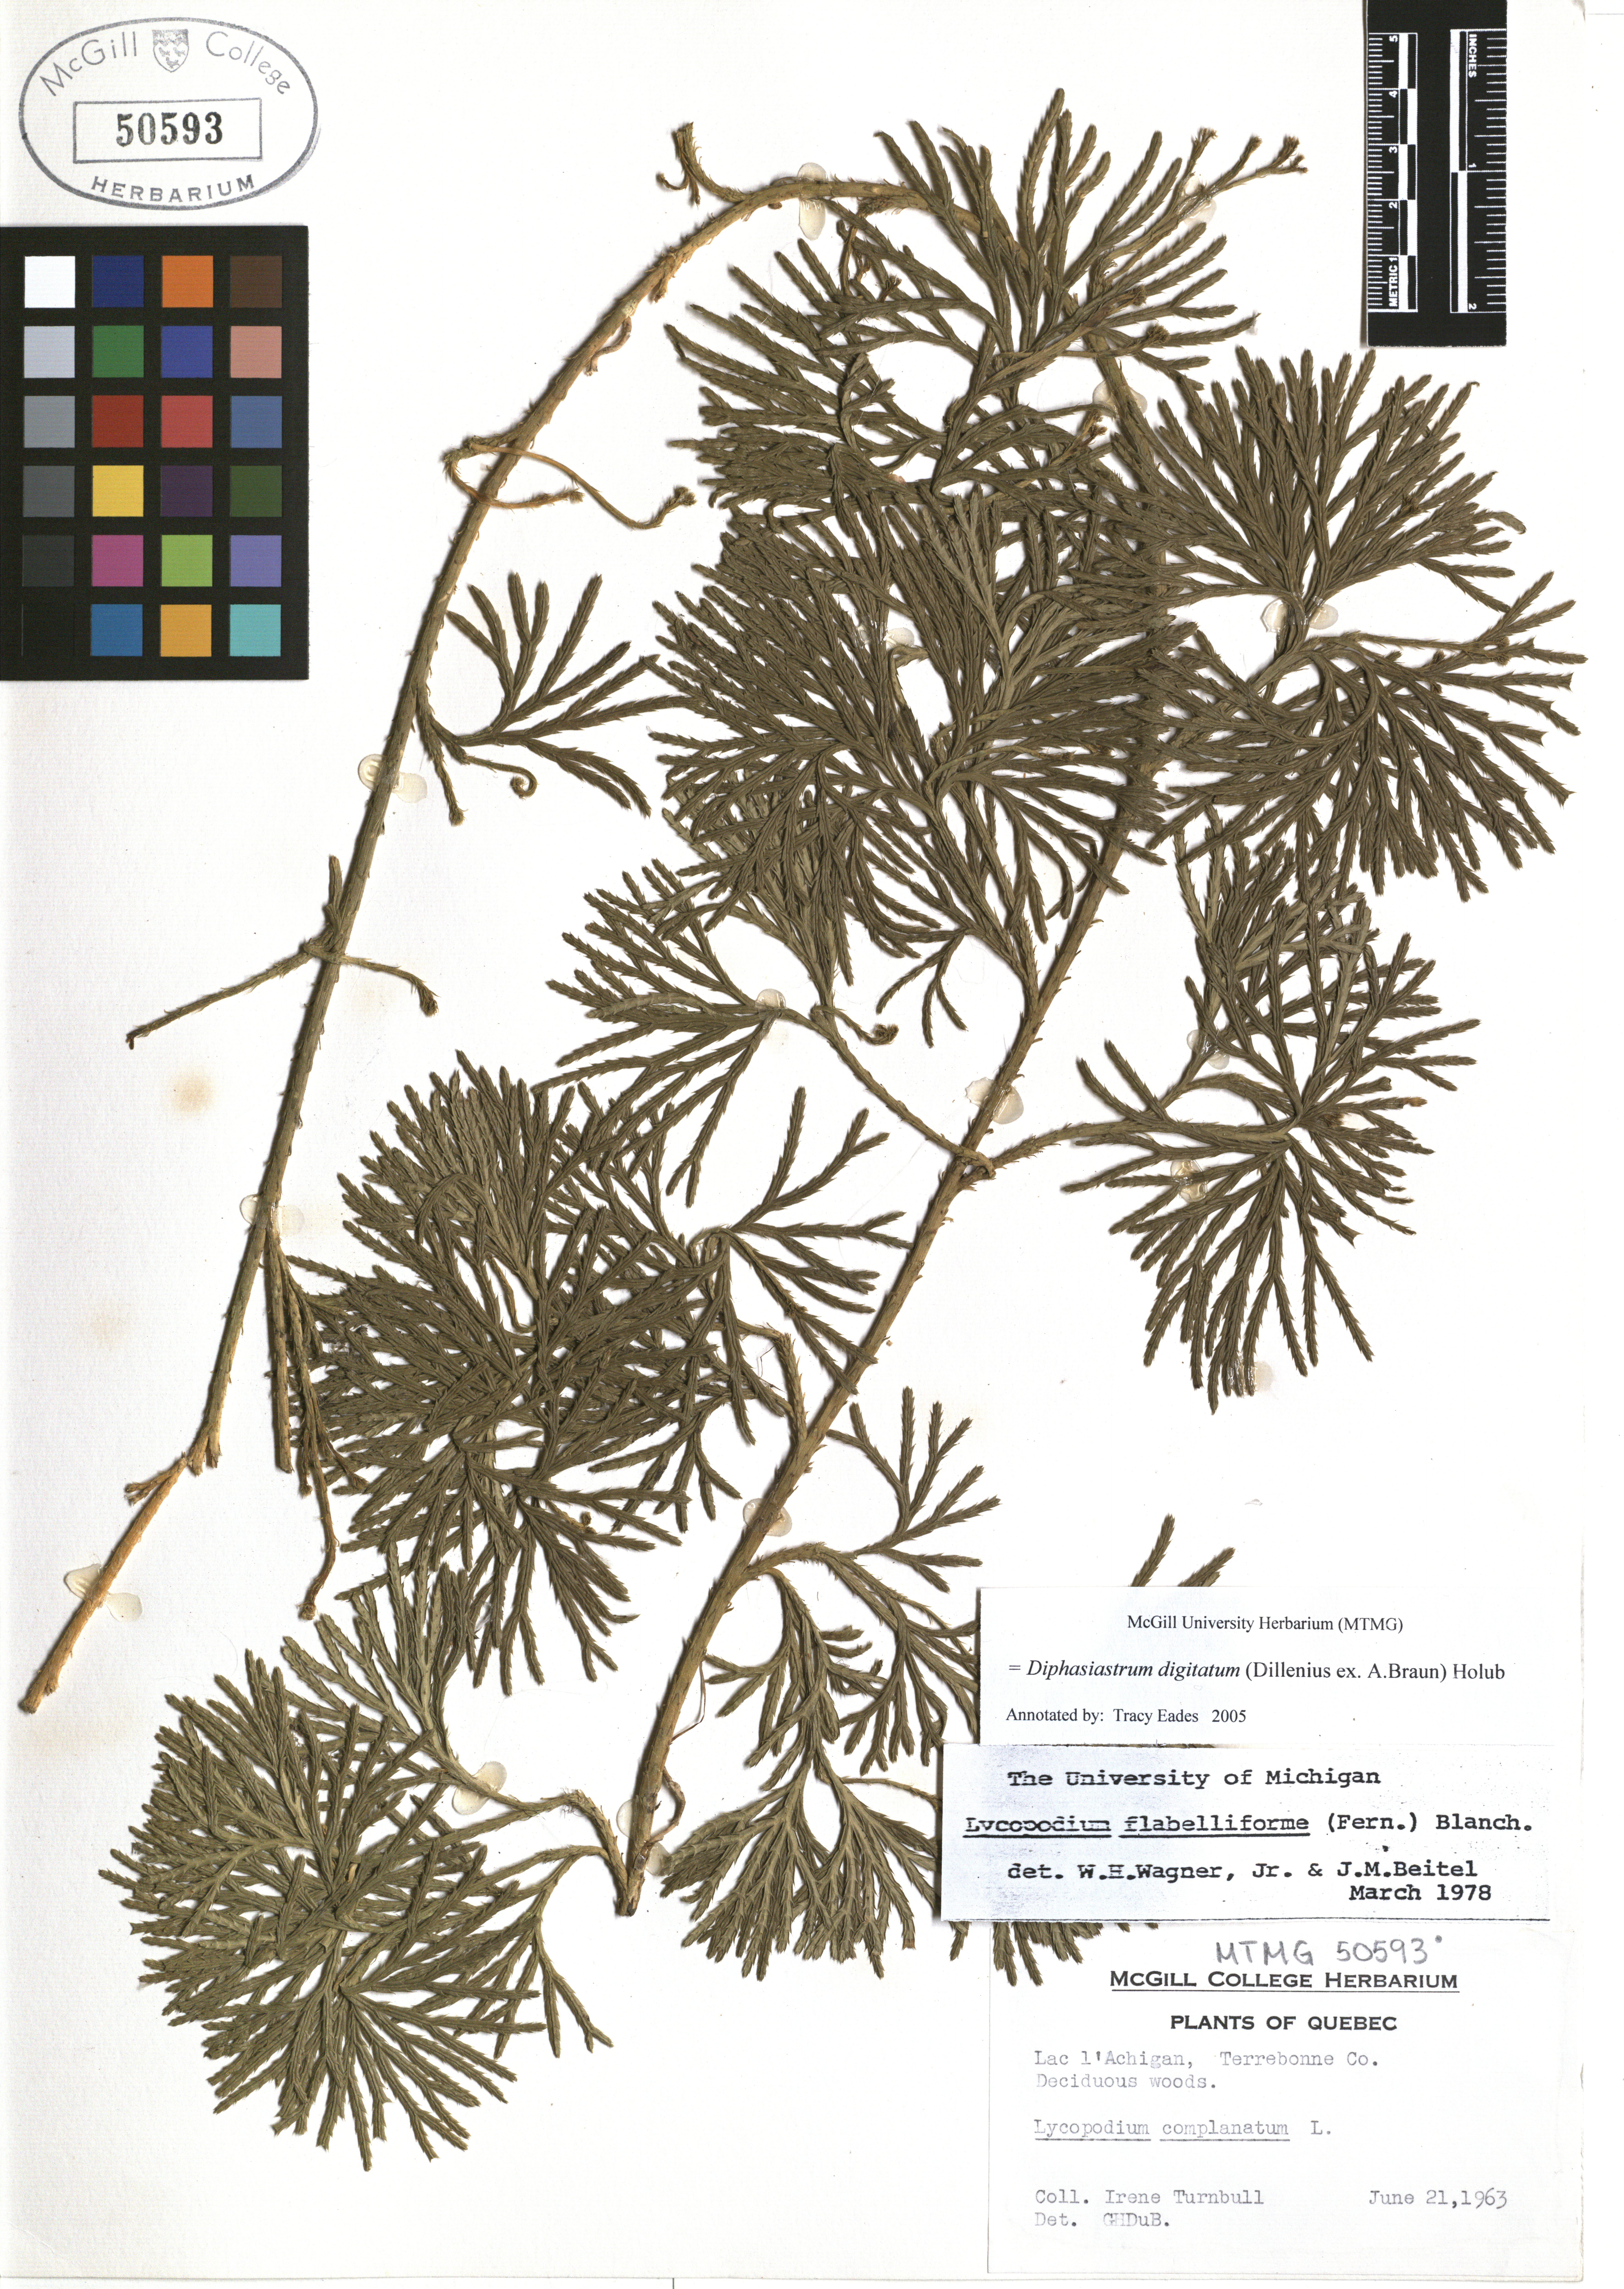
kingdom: Plantae
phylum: Tracheophyta
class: Lycopodiopsida
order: Lycopodiales
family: Lycopodiaceae
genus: Diphasiastrum
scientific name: Diphasiastrum digitatum
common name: Southern running-pine
